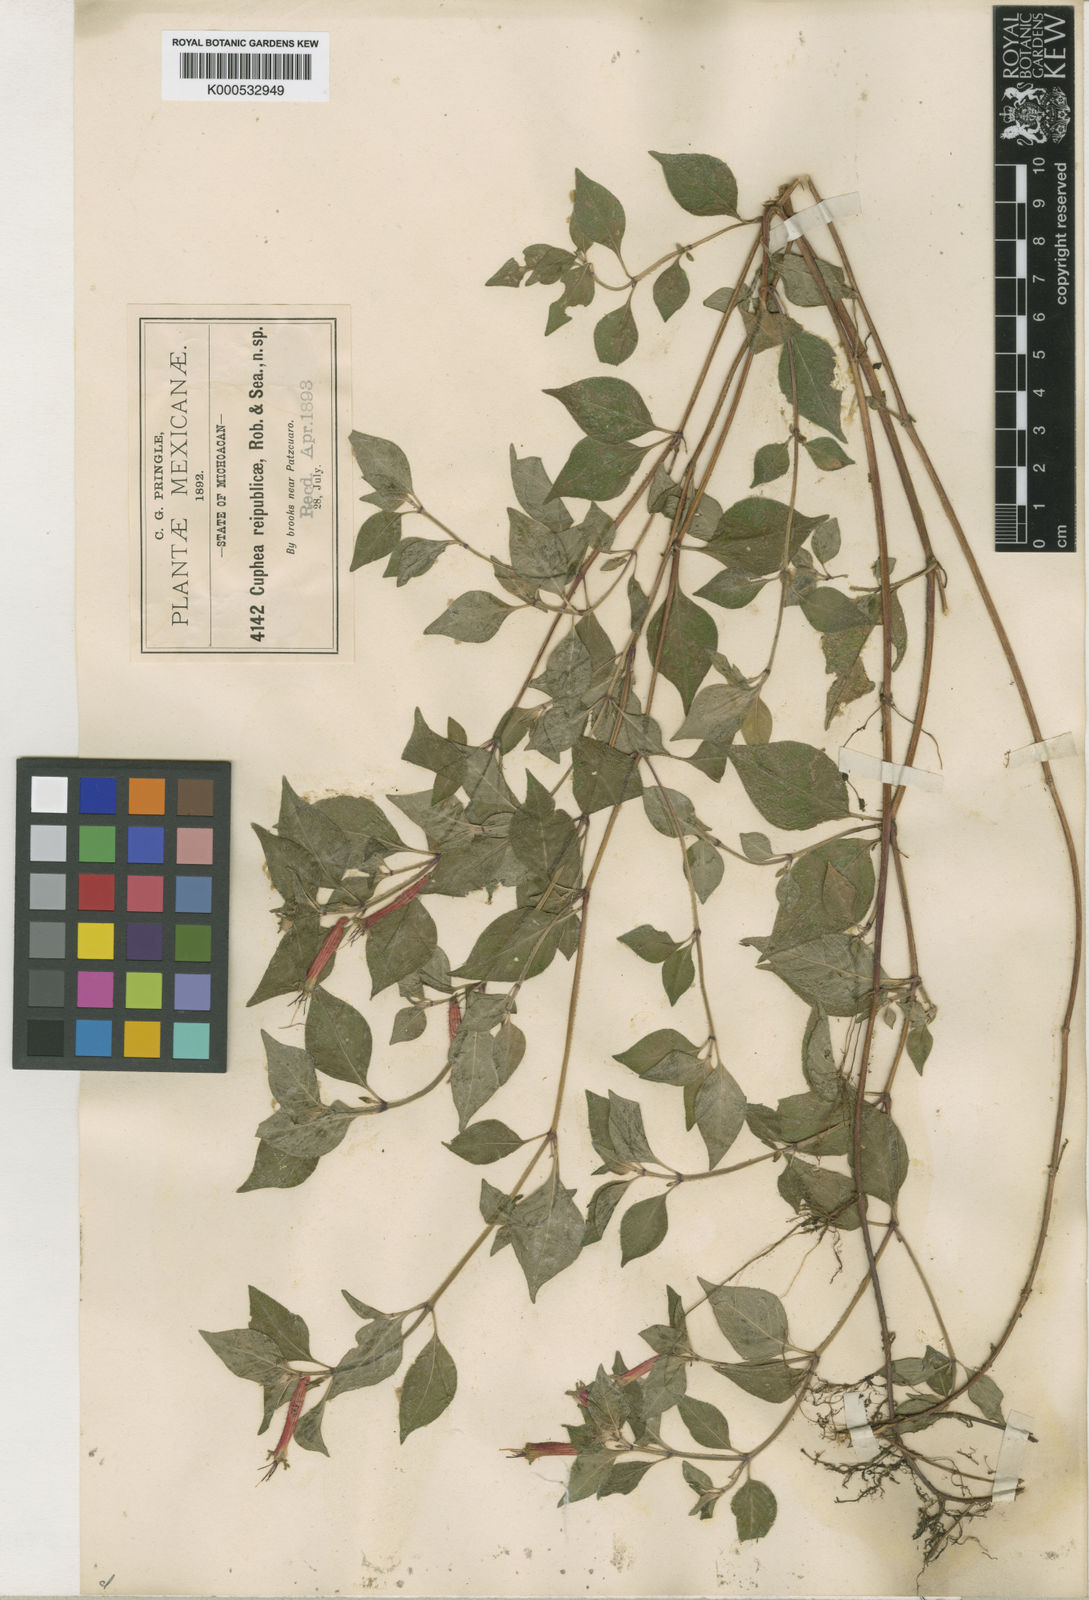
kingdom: Plantae
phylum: Tracheophyta
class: Magnoliopsida
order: Myrtales
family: Lythraceae
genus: Cuphea
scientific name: Cuphea bustamanta
